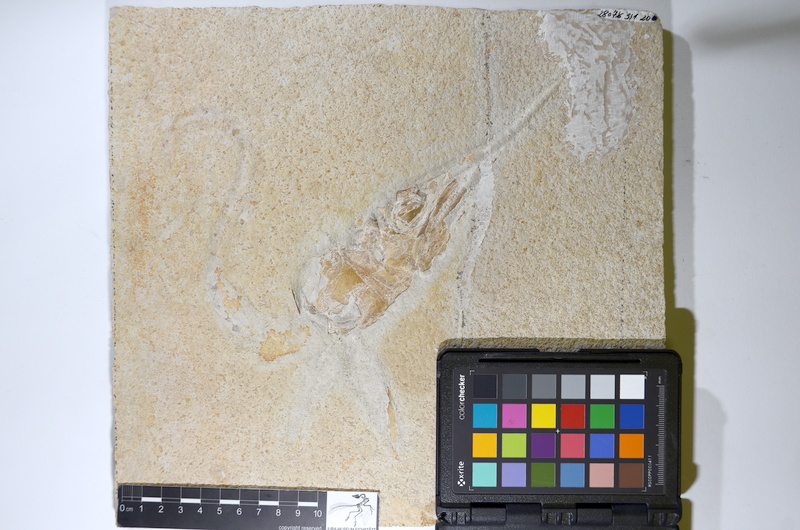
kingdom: Animalia
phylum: Chordata
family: Aspidorhynchidae
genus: Aspidorhynchus
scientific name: Aspidorhynchus acutirostris
